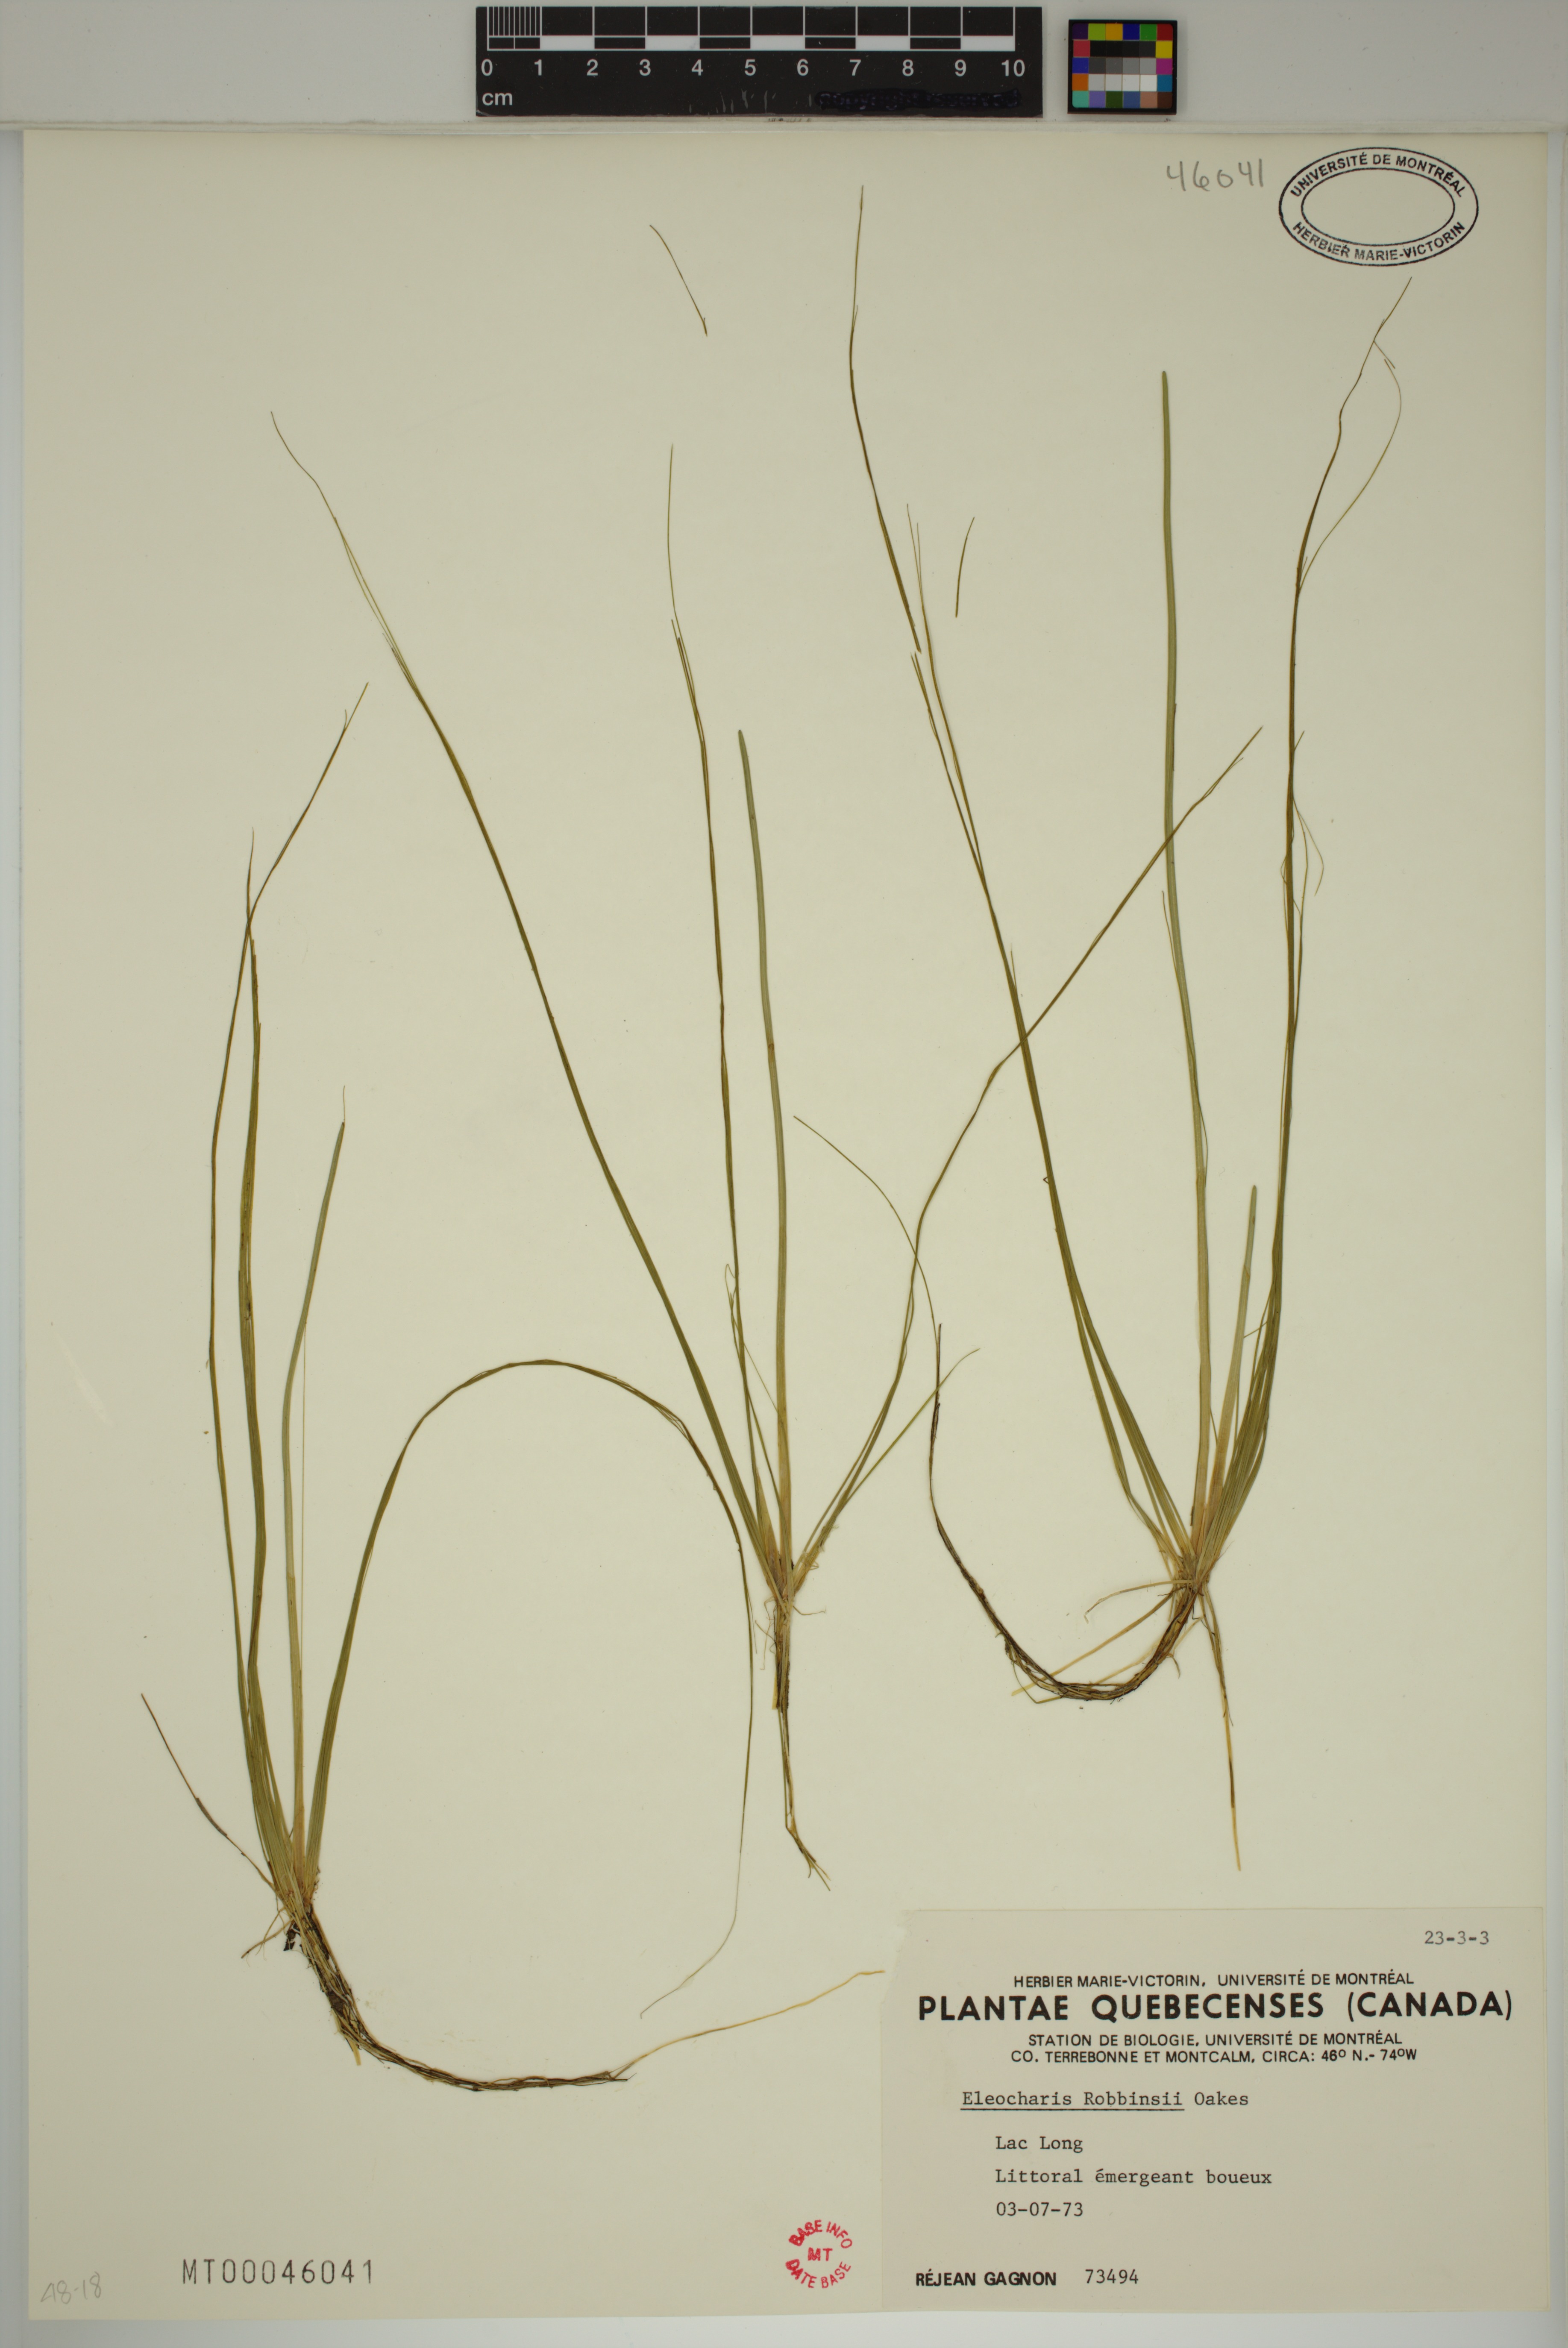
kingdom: Plantae
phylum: Tracheophyta
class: Liliopsida
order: Poales
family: Cyperaceae
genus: Eleocharis
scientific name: Eleocharis robbinsii
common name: Robbins' spikerush
